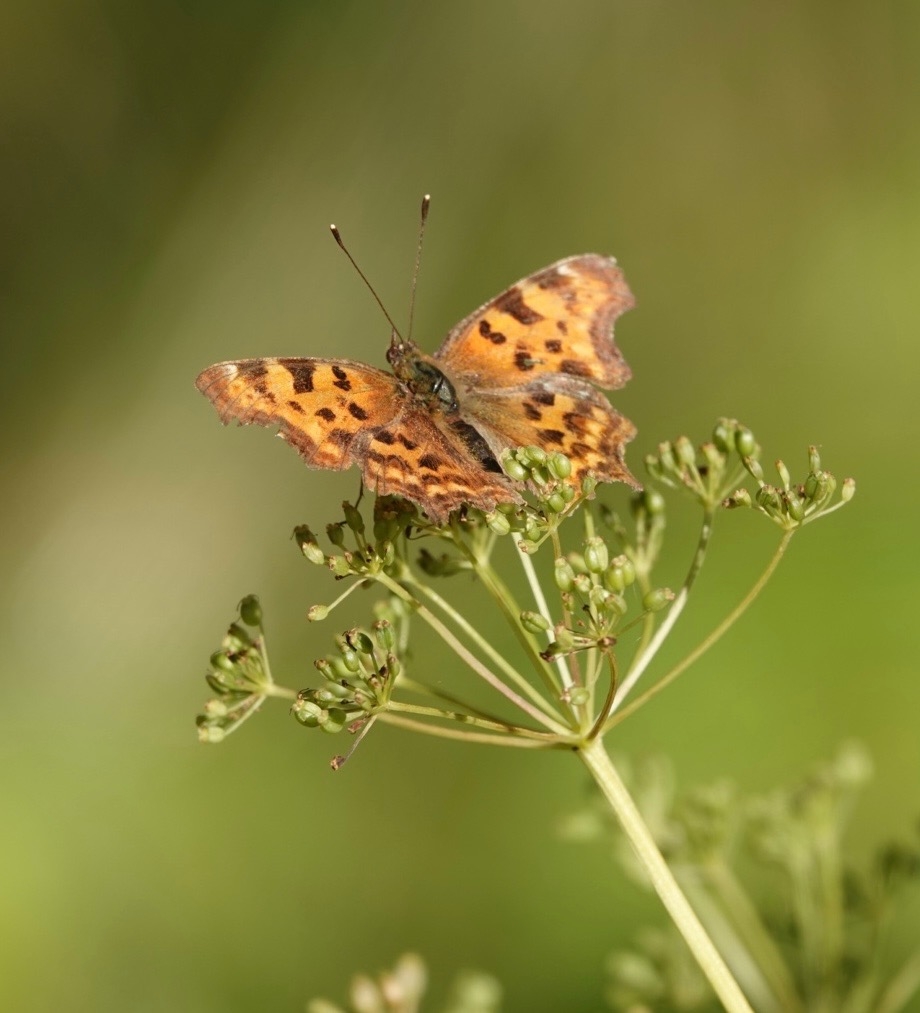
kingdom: Animalia
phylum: Arthropoda
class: Insecta
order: Lepidoptera
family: Nymphalidae
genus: Polygonia
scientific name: Polygonia c-album
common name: Det hvide C
